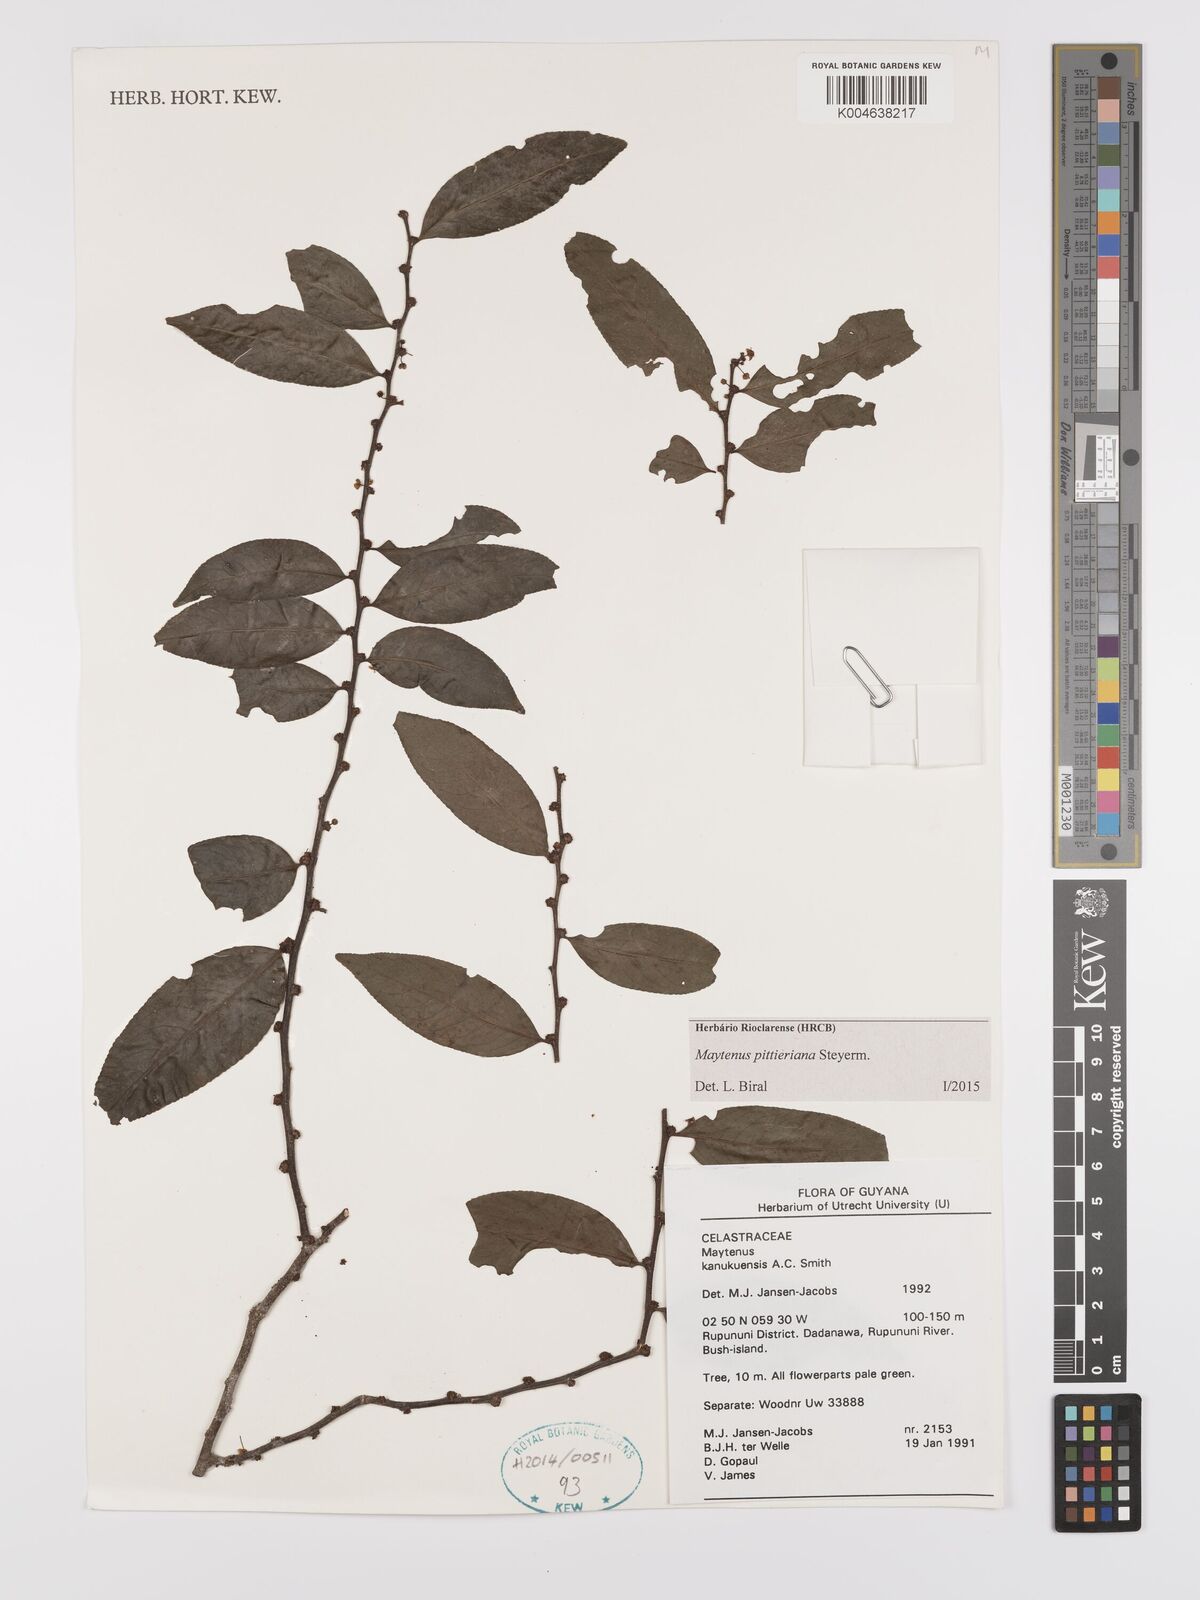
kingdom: Plantae
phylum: Tracheophyta
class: Magnoliopsida
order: Celastrales
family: Celastraceae
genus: Monteverdia
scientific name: Monteverdia pittieriana
